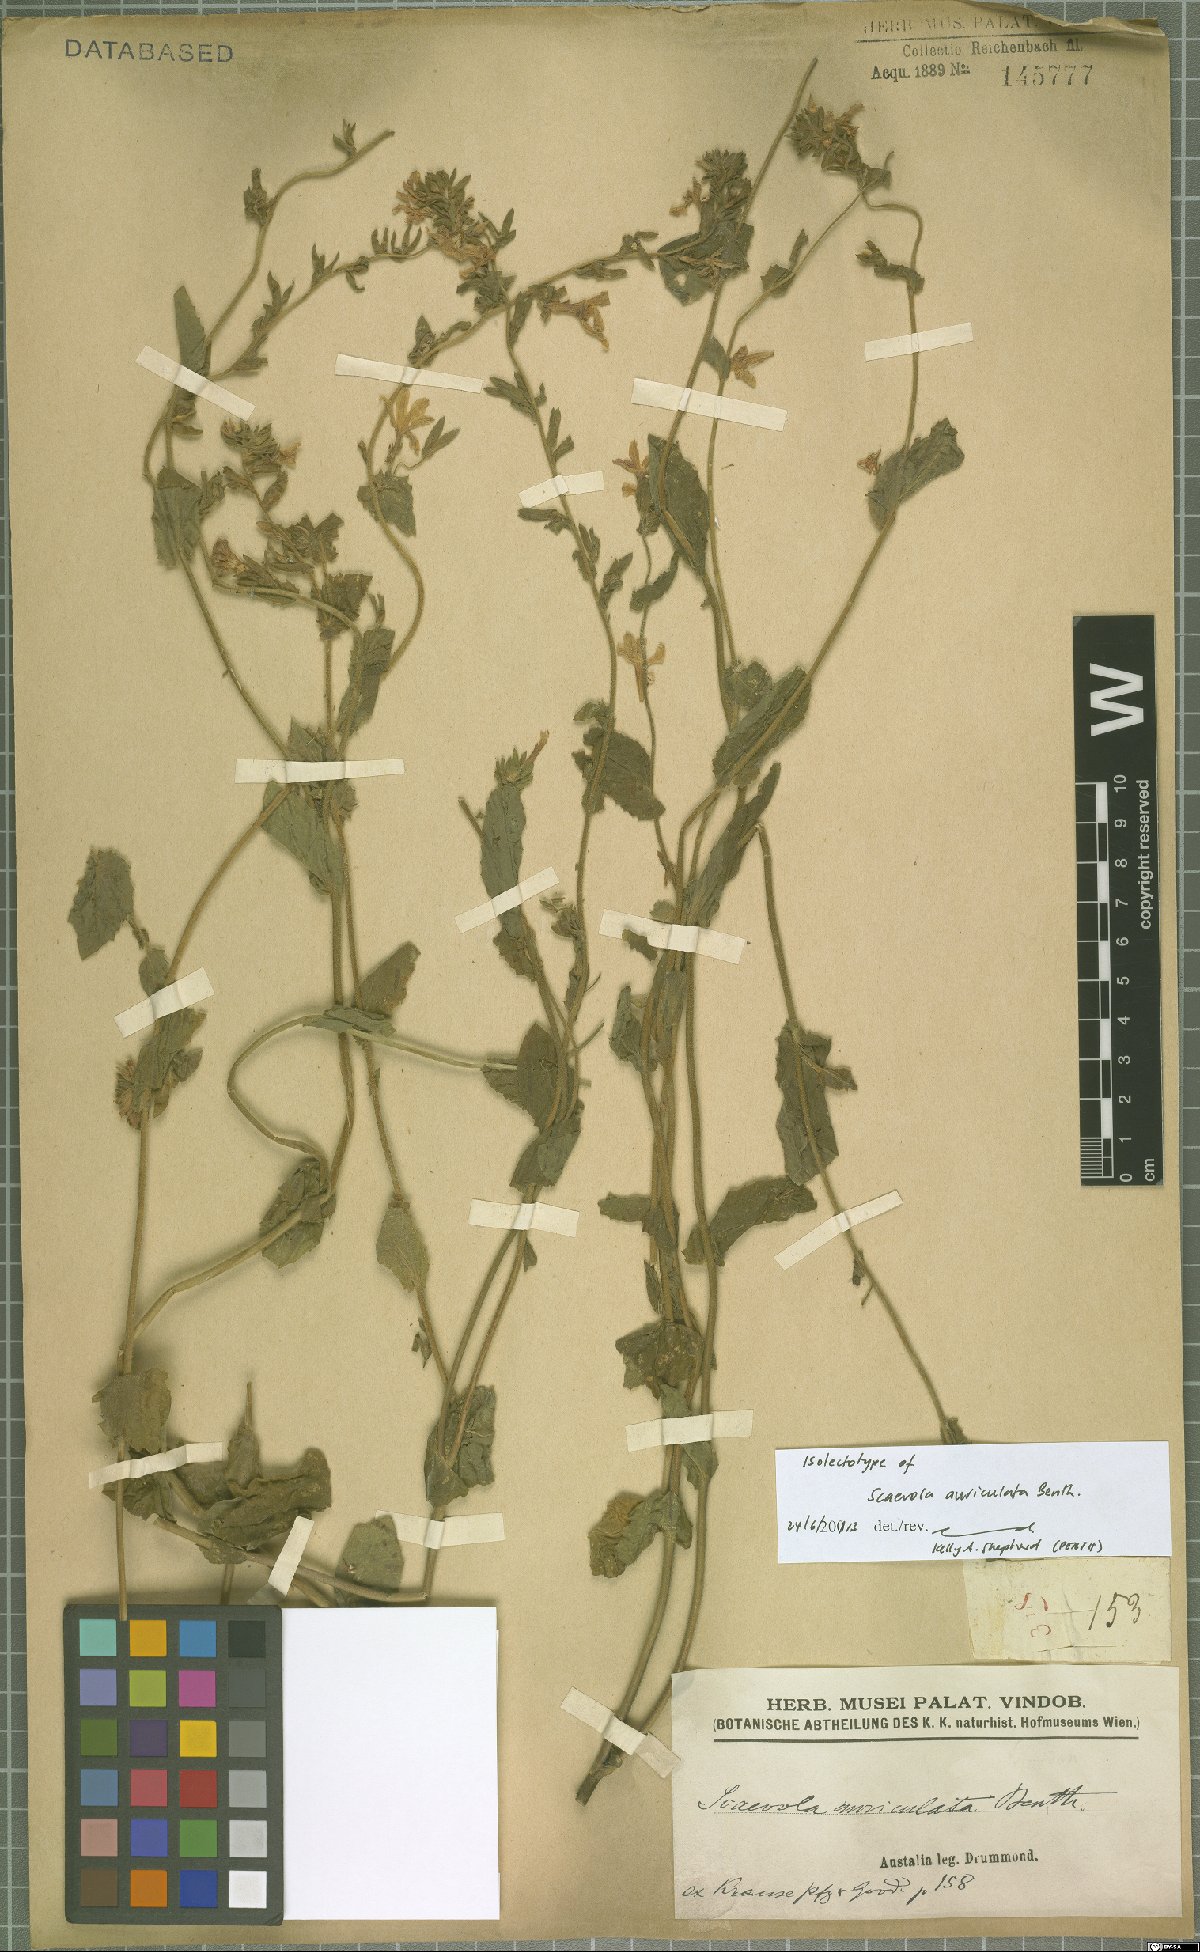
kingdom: Plantae
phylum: Tracheophyta
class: Magnoliopsida
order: Asterales
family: Goodeniaceae
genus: Scaevola
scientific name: Scaevola auriculata
